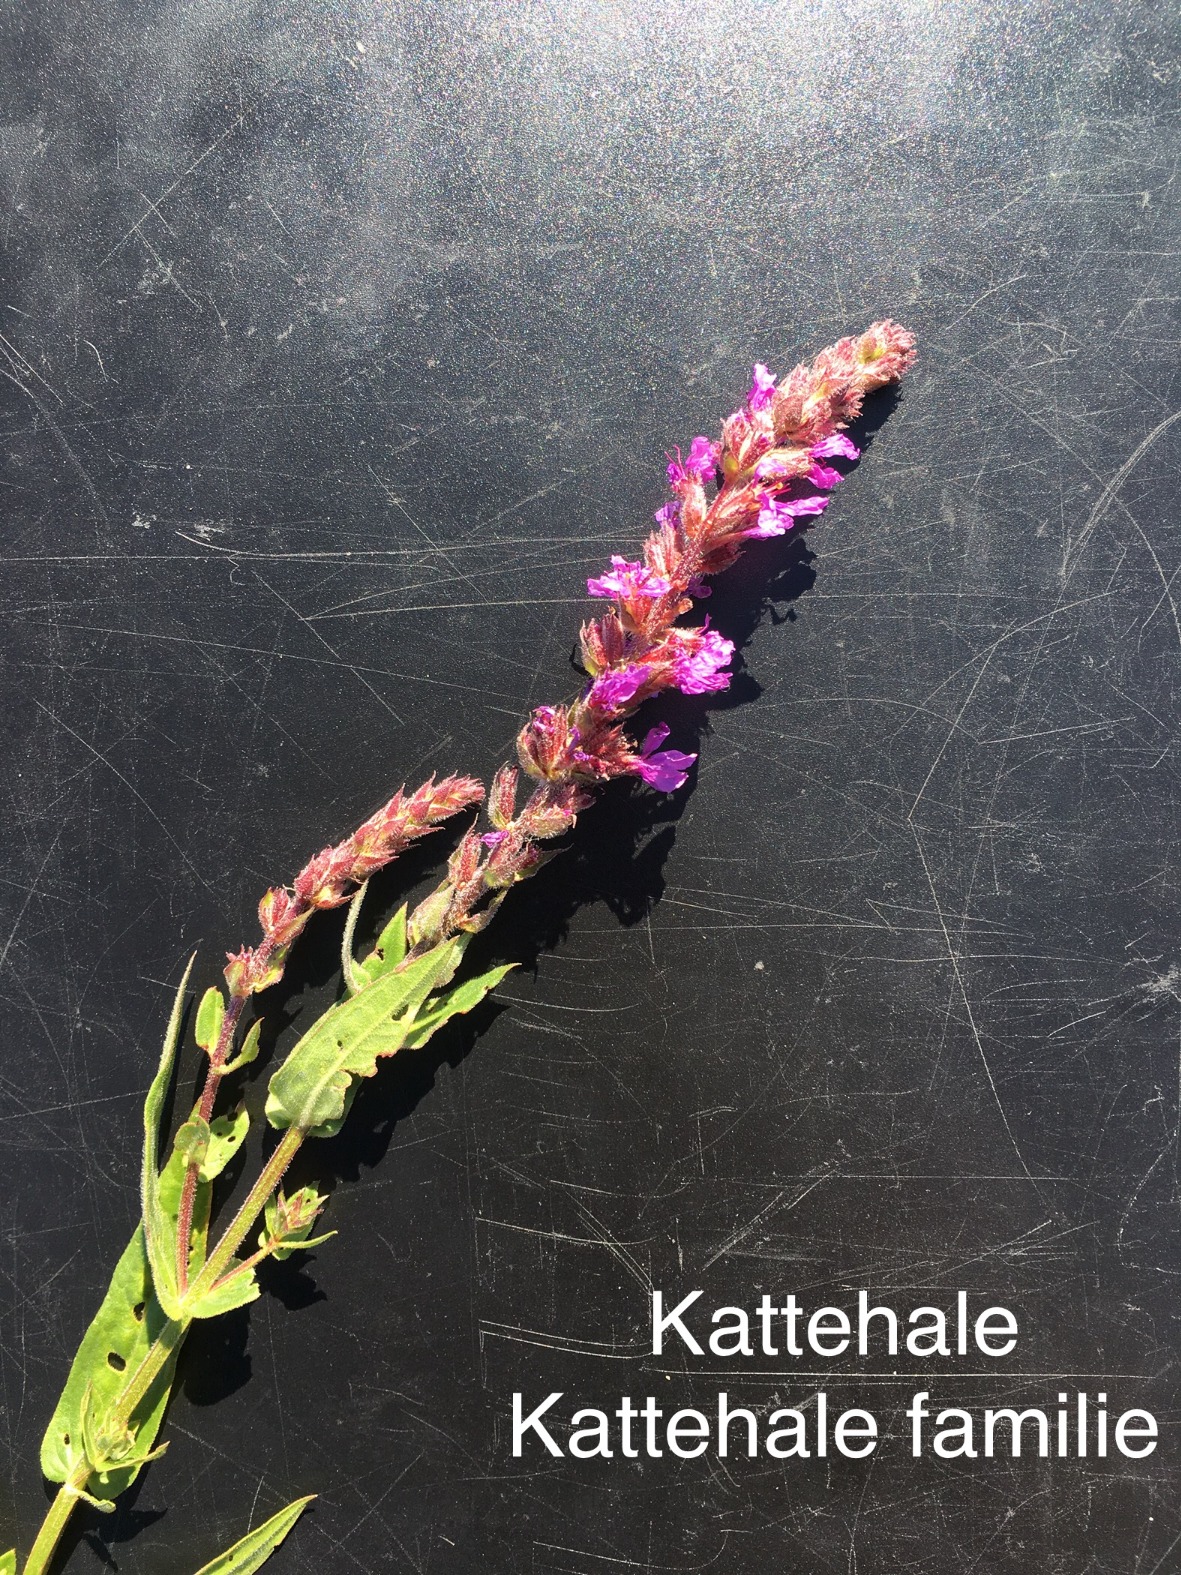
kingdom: Plantae
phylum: Tracheophyta
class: Magnoliopsida
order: Myrtales
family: Lythraceae
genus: Lythrum
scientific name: Lythrum salicaria
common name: Kattehale
